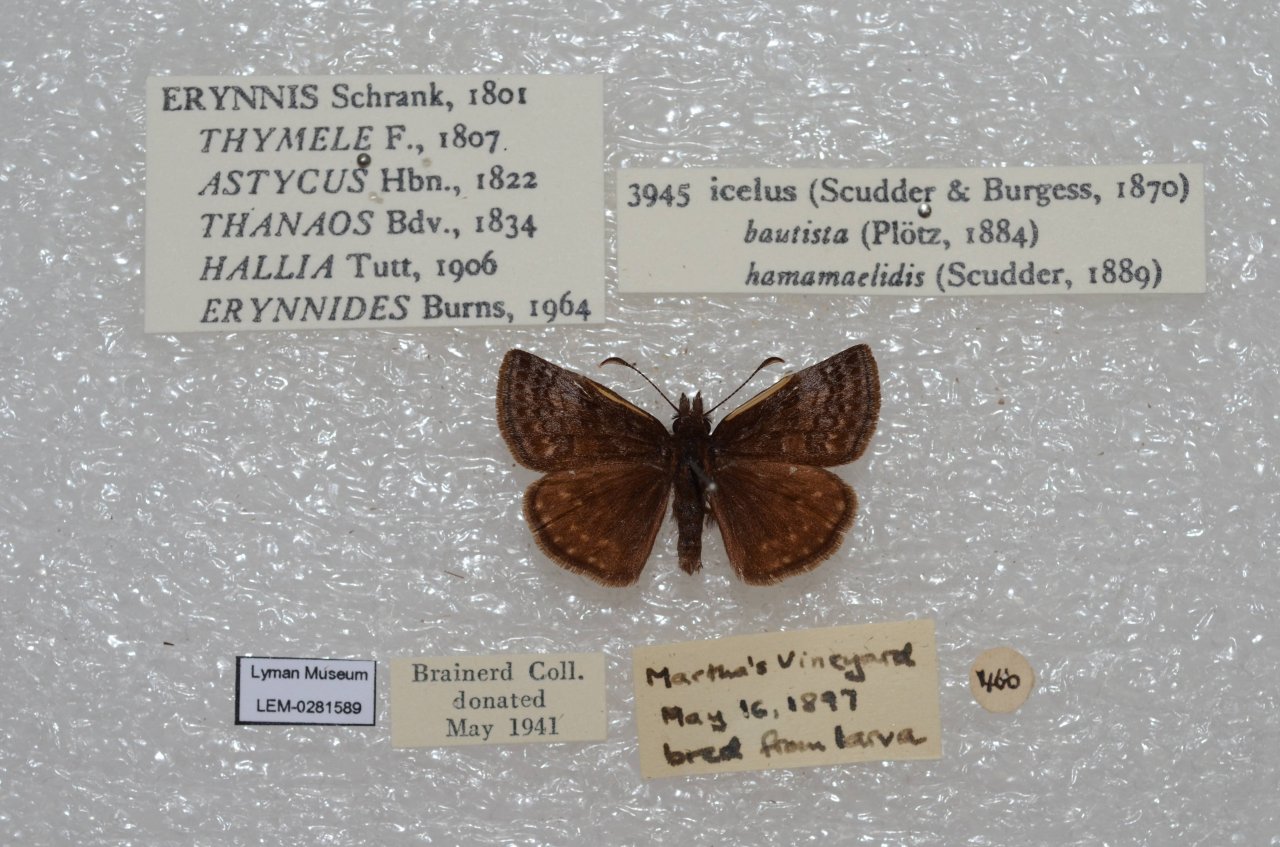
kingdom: Animalia
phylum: Arthropoda
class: Insecta
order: Lepidoptera
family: Hesperiidae
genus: Erynnis
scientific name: Erynnis icelus
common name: Dreamy Duskywing
